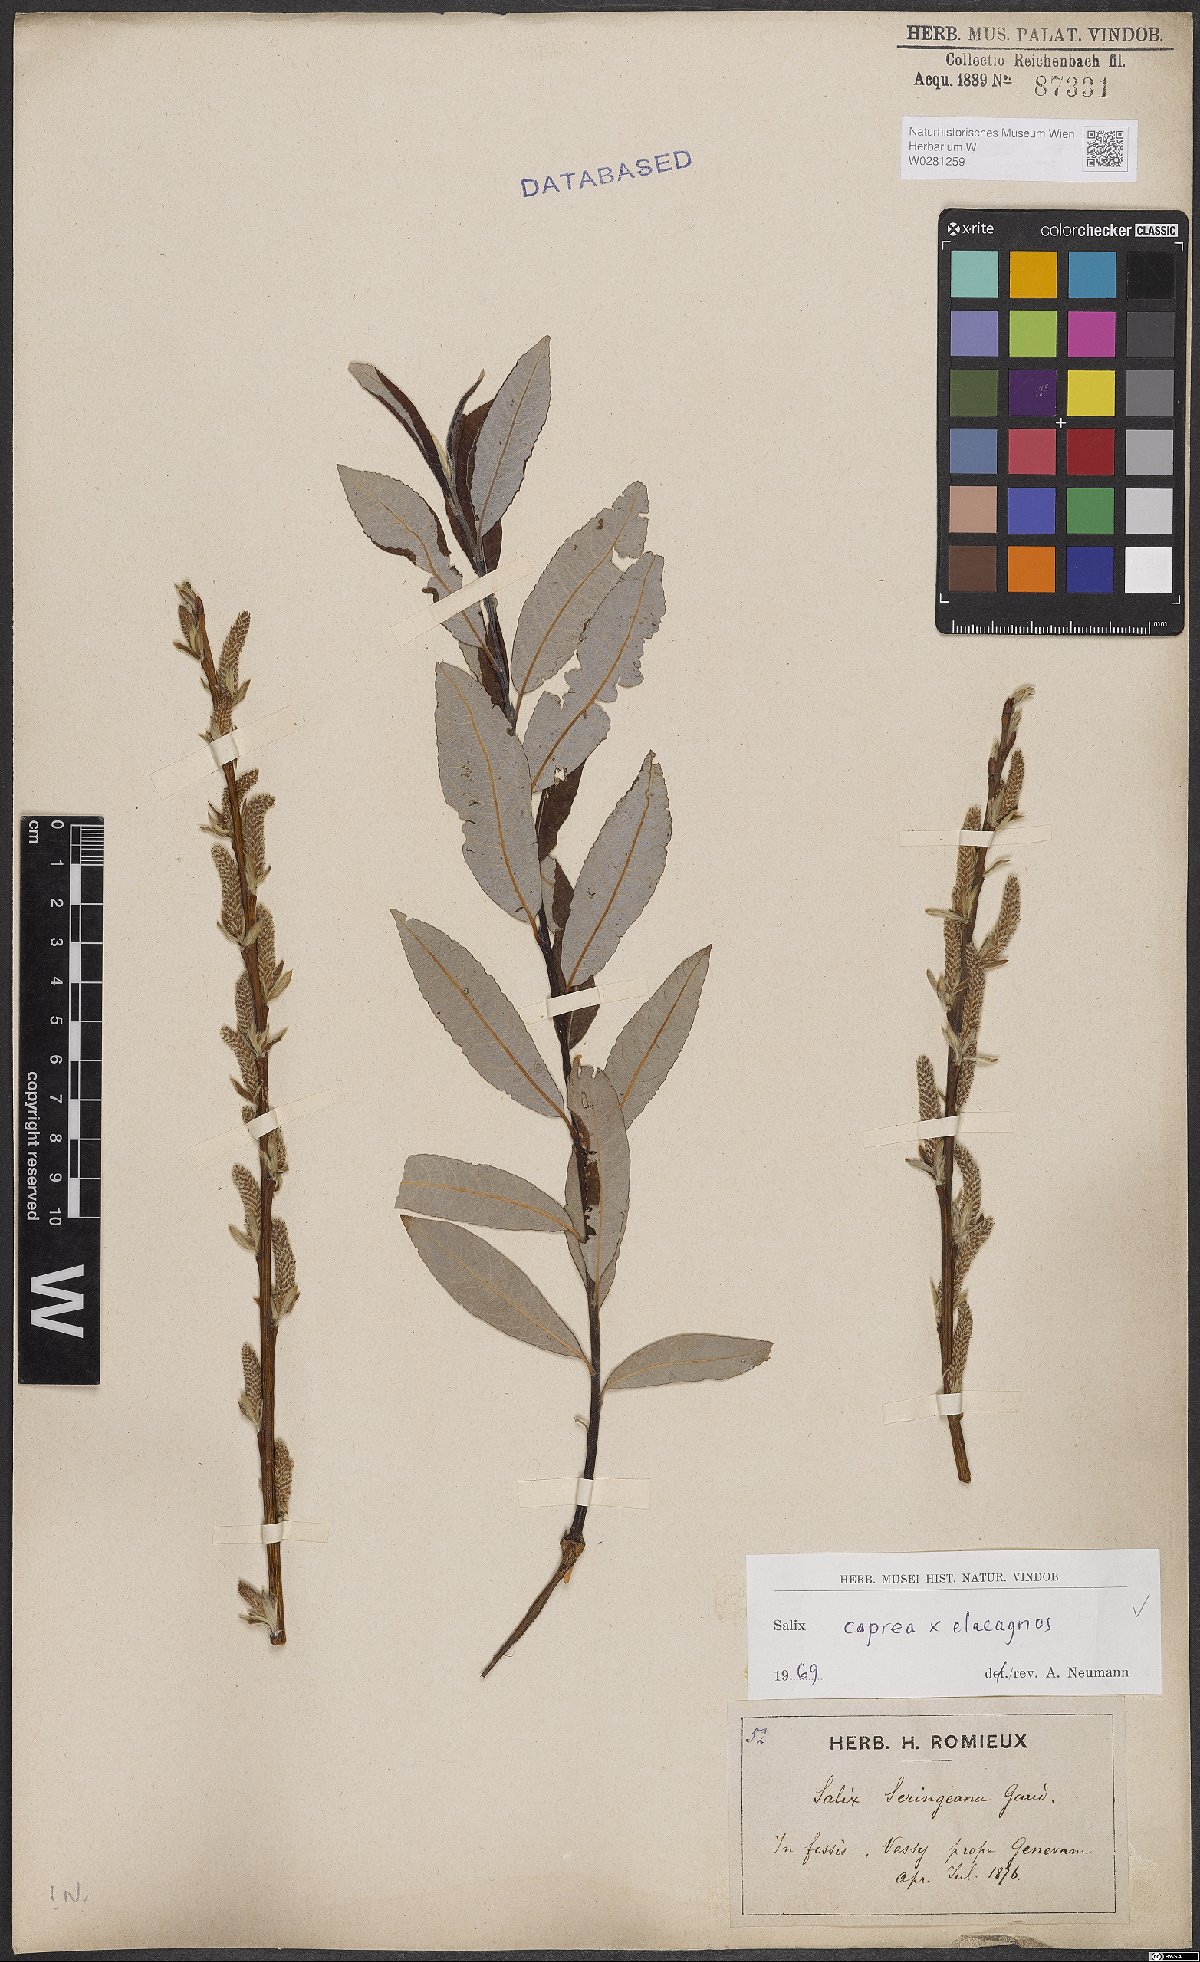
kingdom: Plantae
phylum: Tracheophyta
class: Magnoliopsida
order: Malpighiales
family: Salicaceae
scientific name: Salicaceae
